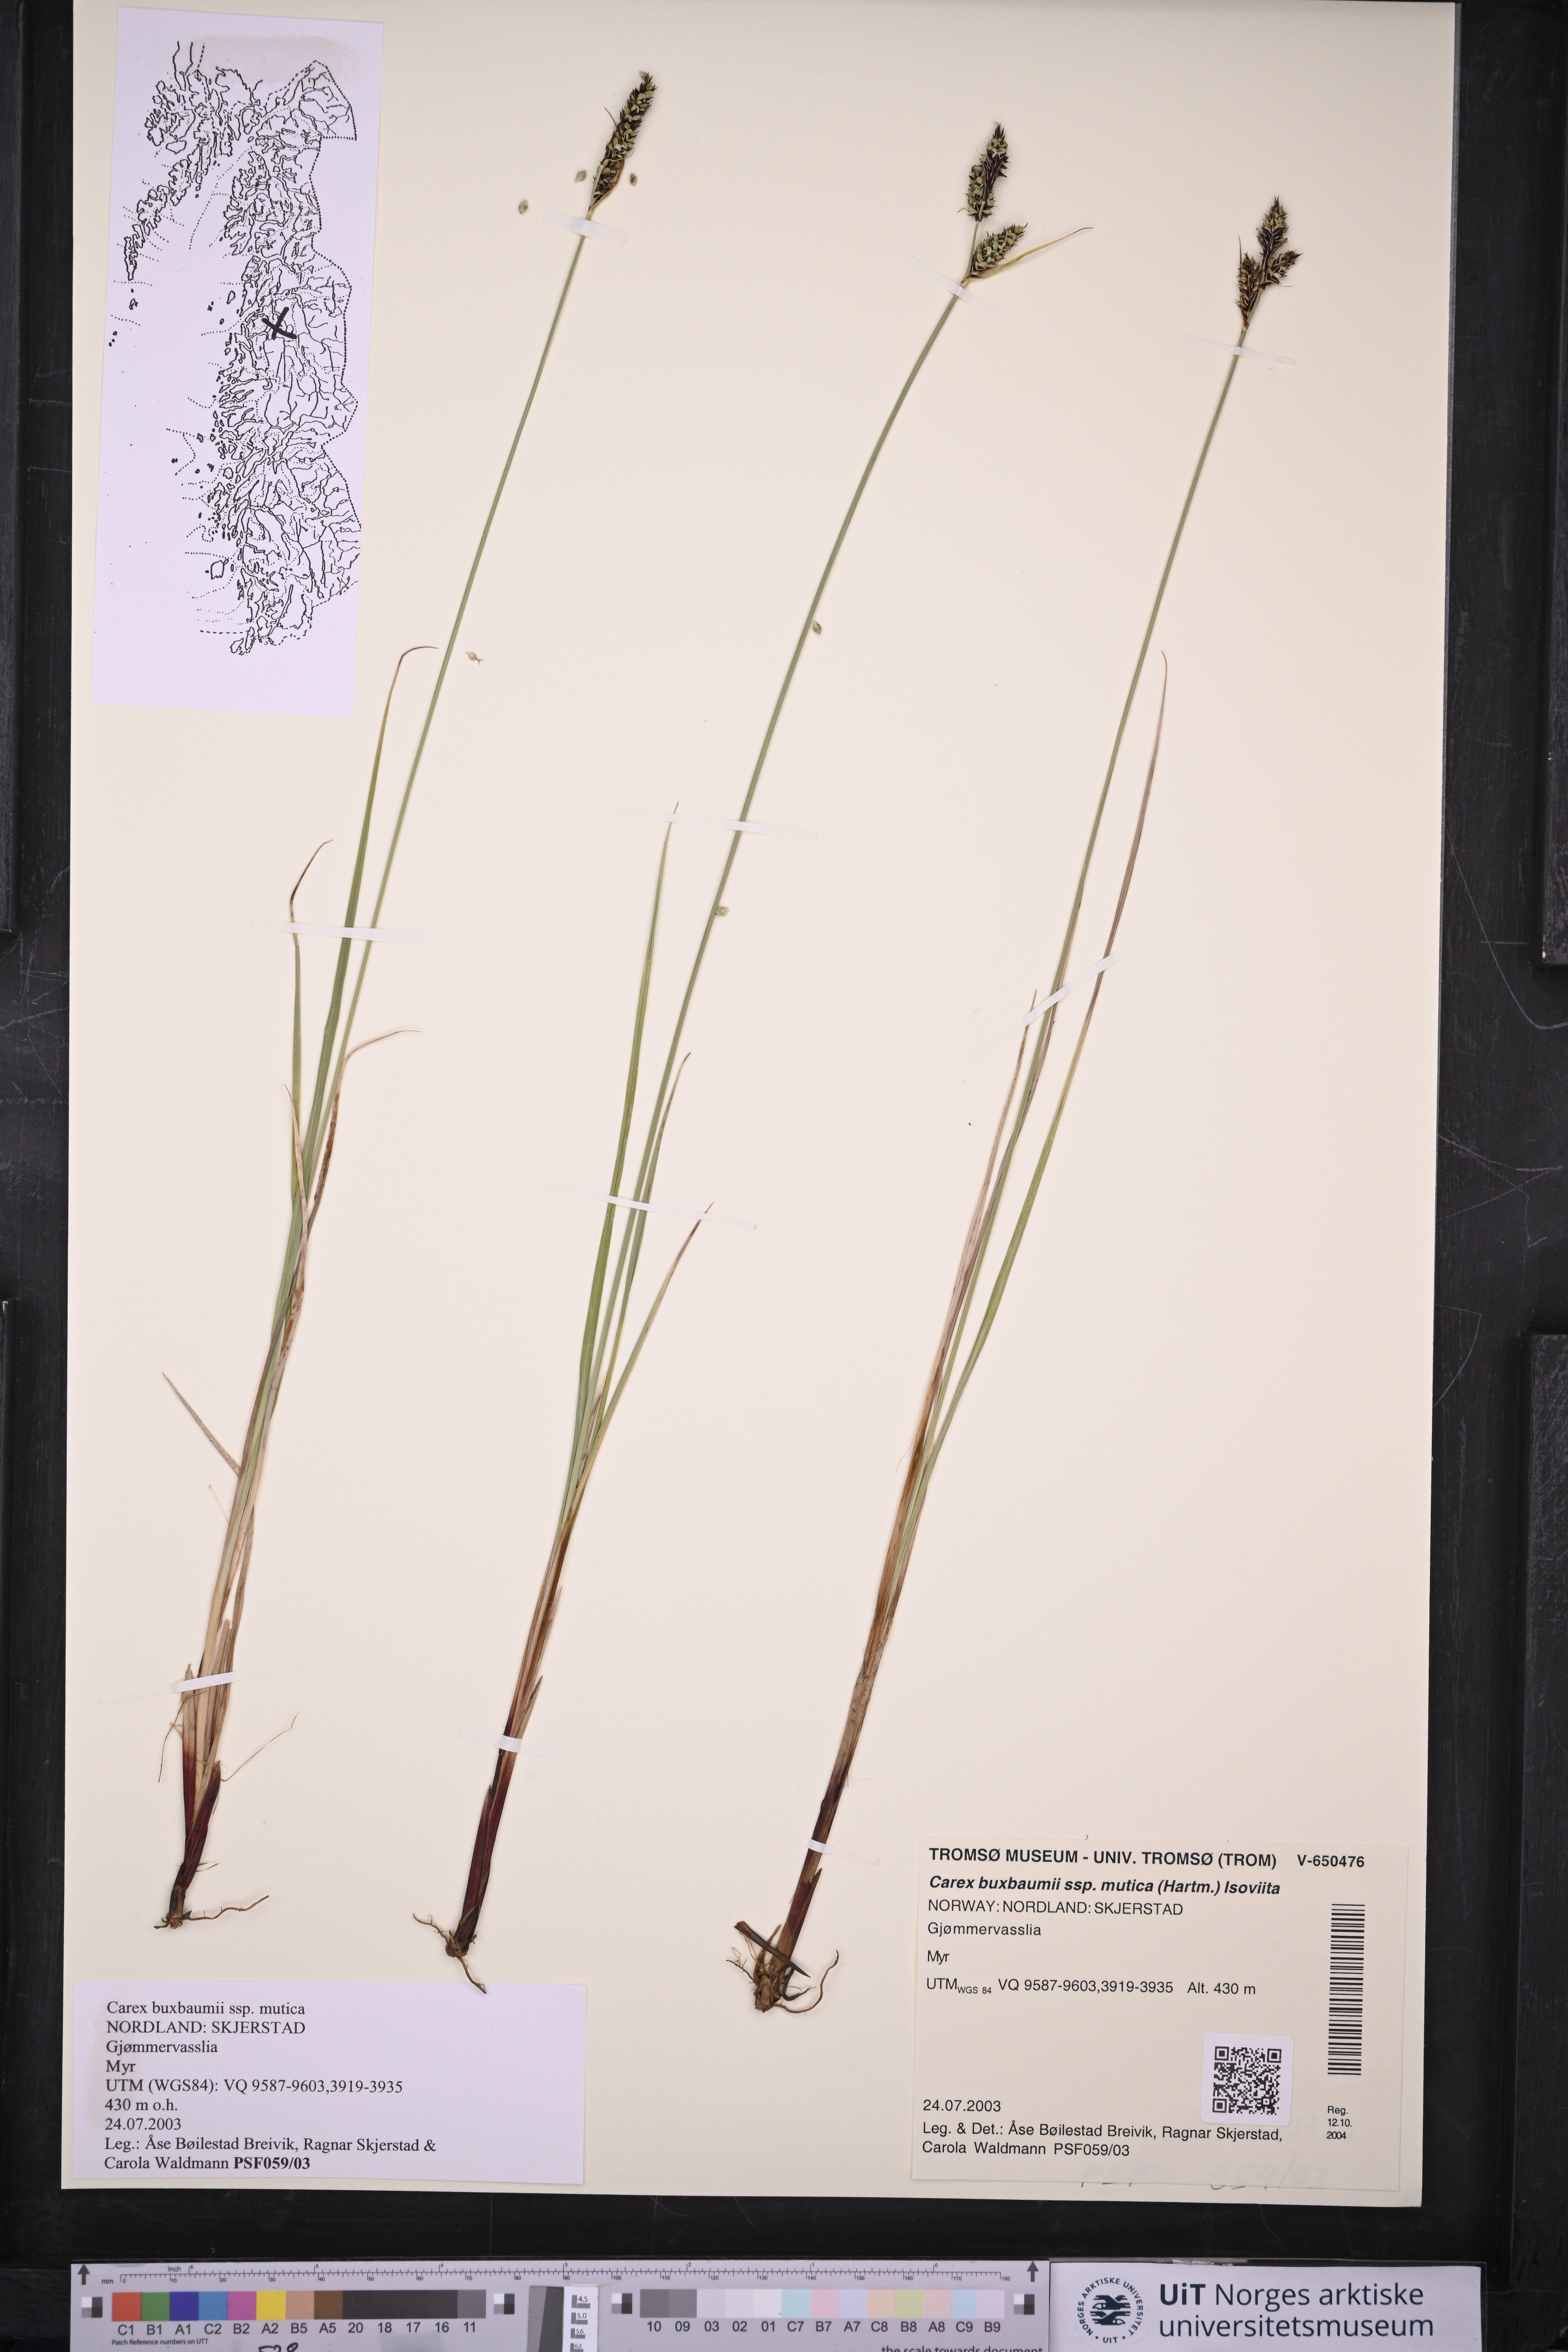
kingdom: Plantae
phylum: Tracheophyta
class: Liliopsida
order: Poales
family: Cyperaceae
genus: Carex
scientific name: Carex adelostoma
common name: Circumpolar sedge
